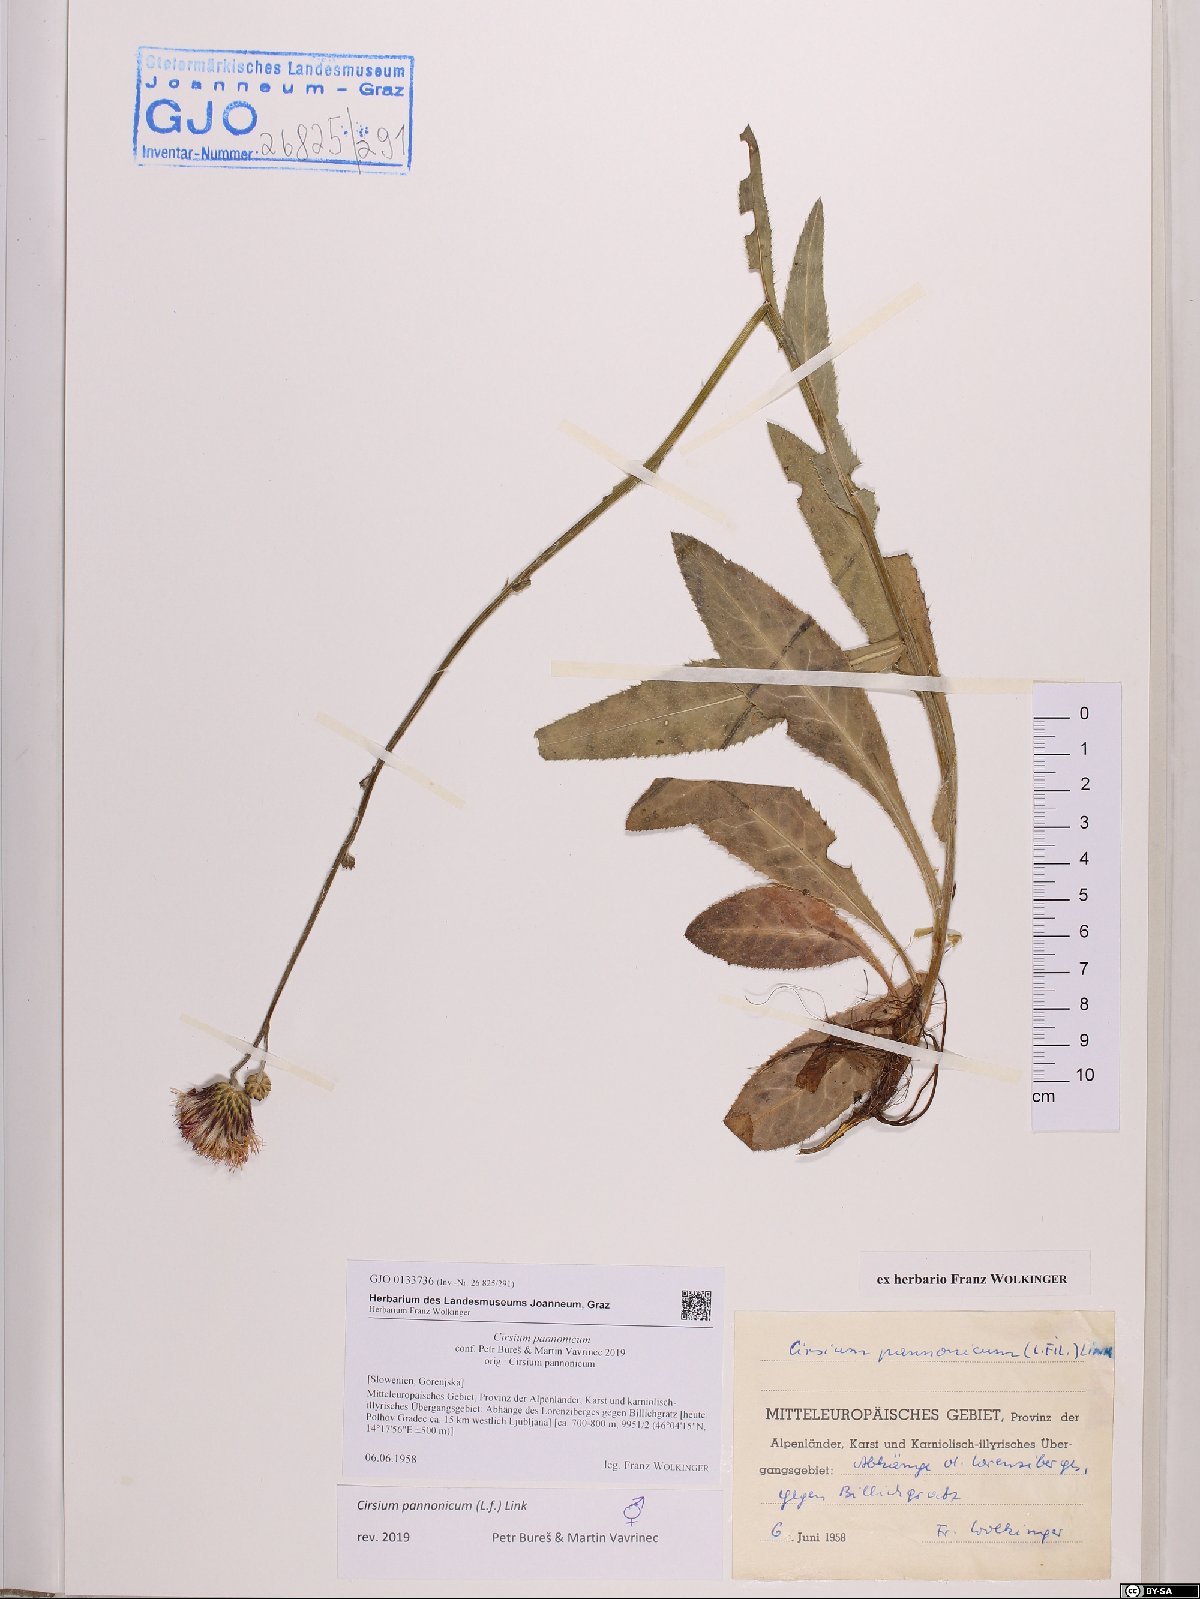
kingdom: Plantae
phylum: Tracheophyta
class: Magnoliopsida
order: Asterales
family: Asteraceae
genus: Cirsium
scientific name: Cirsium pannonicum
